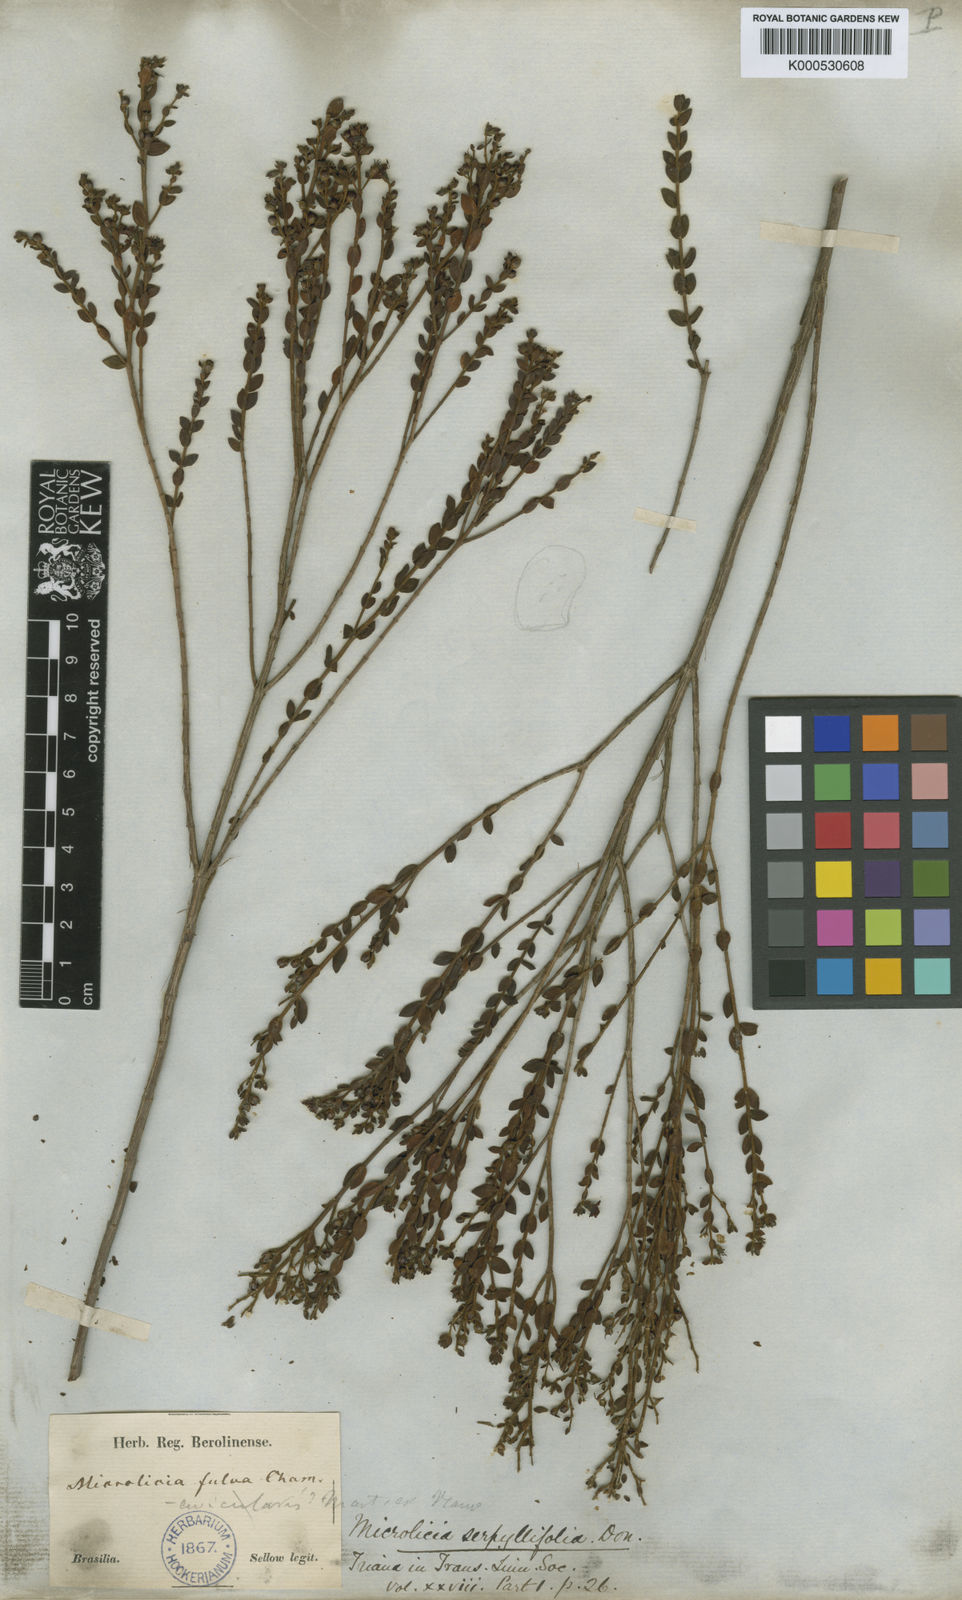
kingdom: Plantae
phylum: Tracheophyta
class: Magnoliopsida
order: Myrtales
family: Melastomataceae
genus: Microlicia
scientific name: Microlicia fulva
